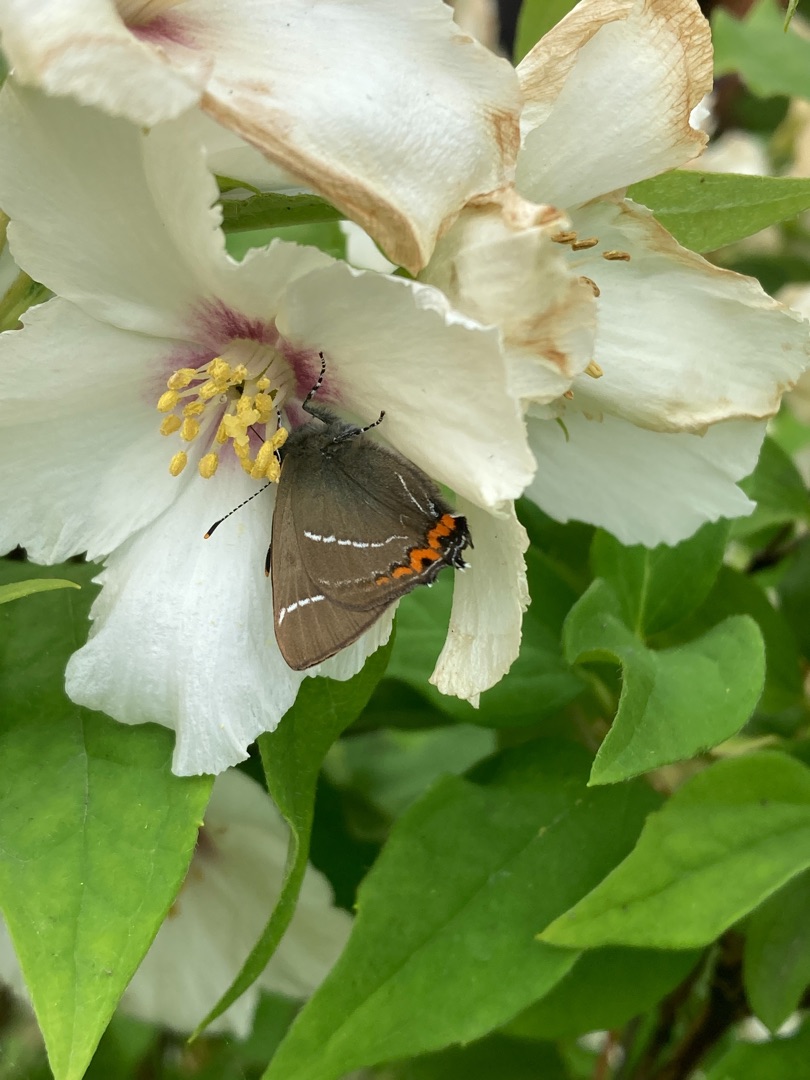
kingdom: Animalia
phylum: Arthropoda
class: Insecta
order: Lepidoptera
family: Lycaenidae
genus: Satyrium
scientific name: Satyrium w-album
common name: Det hvide W
